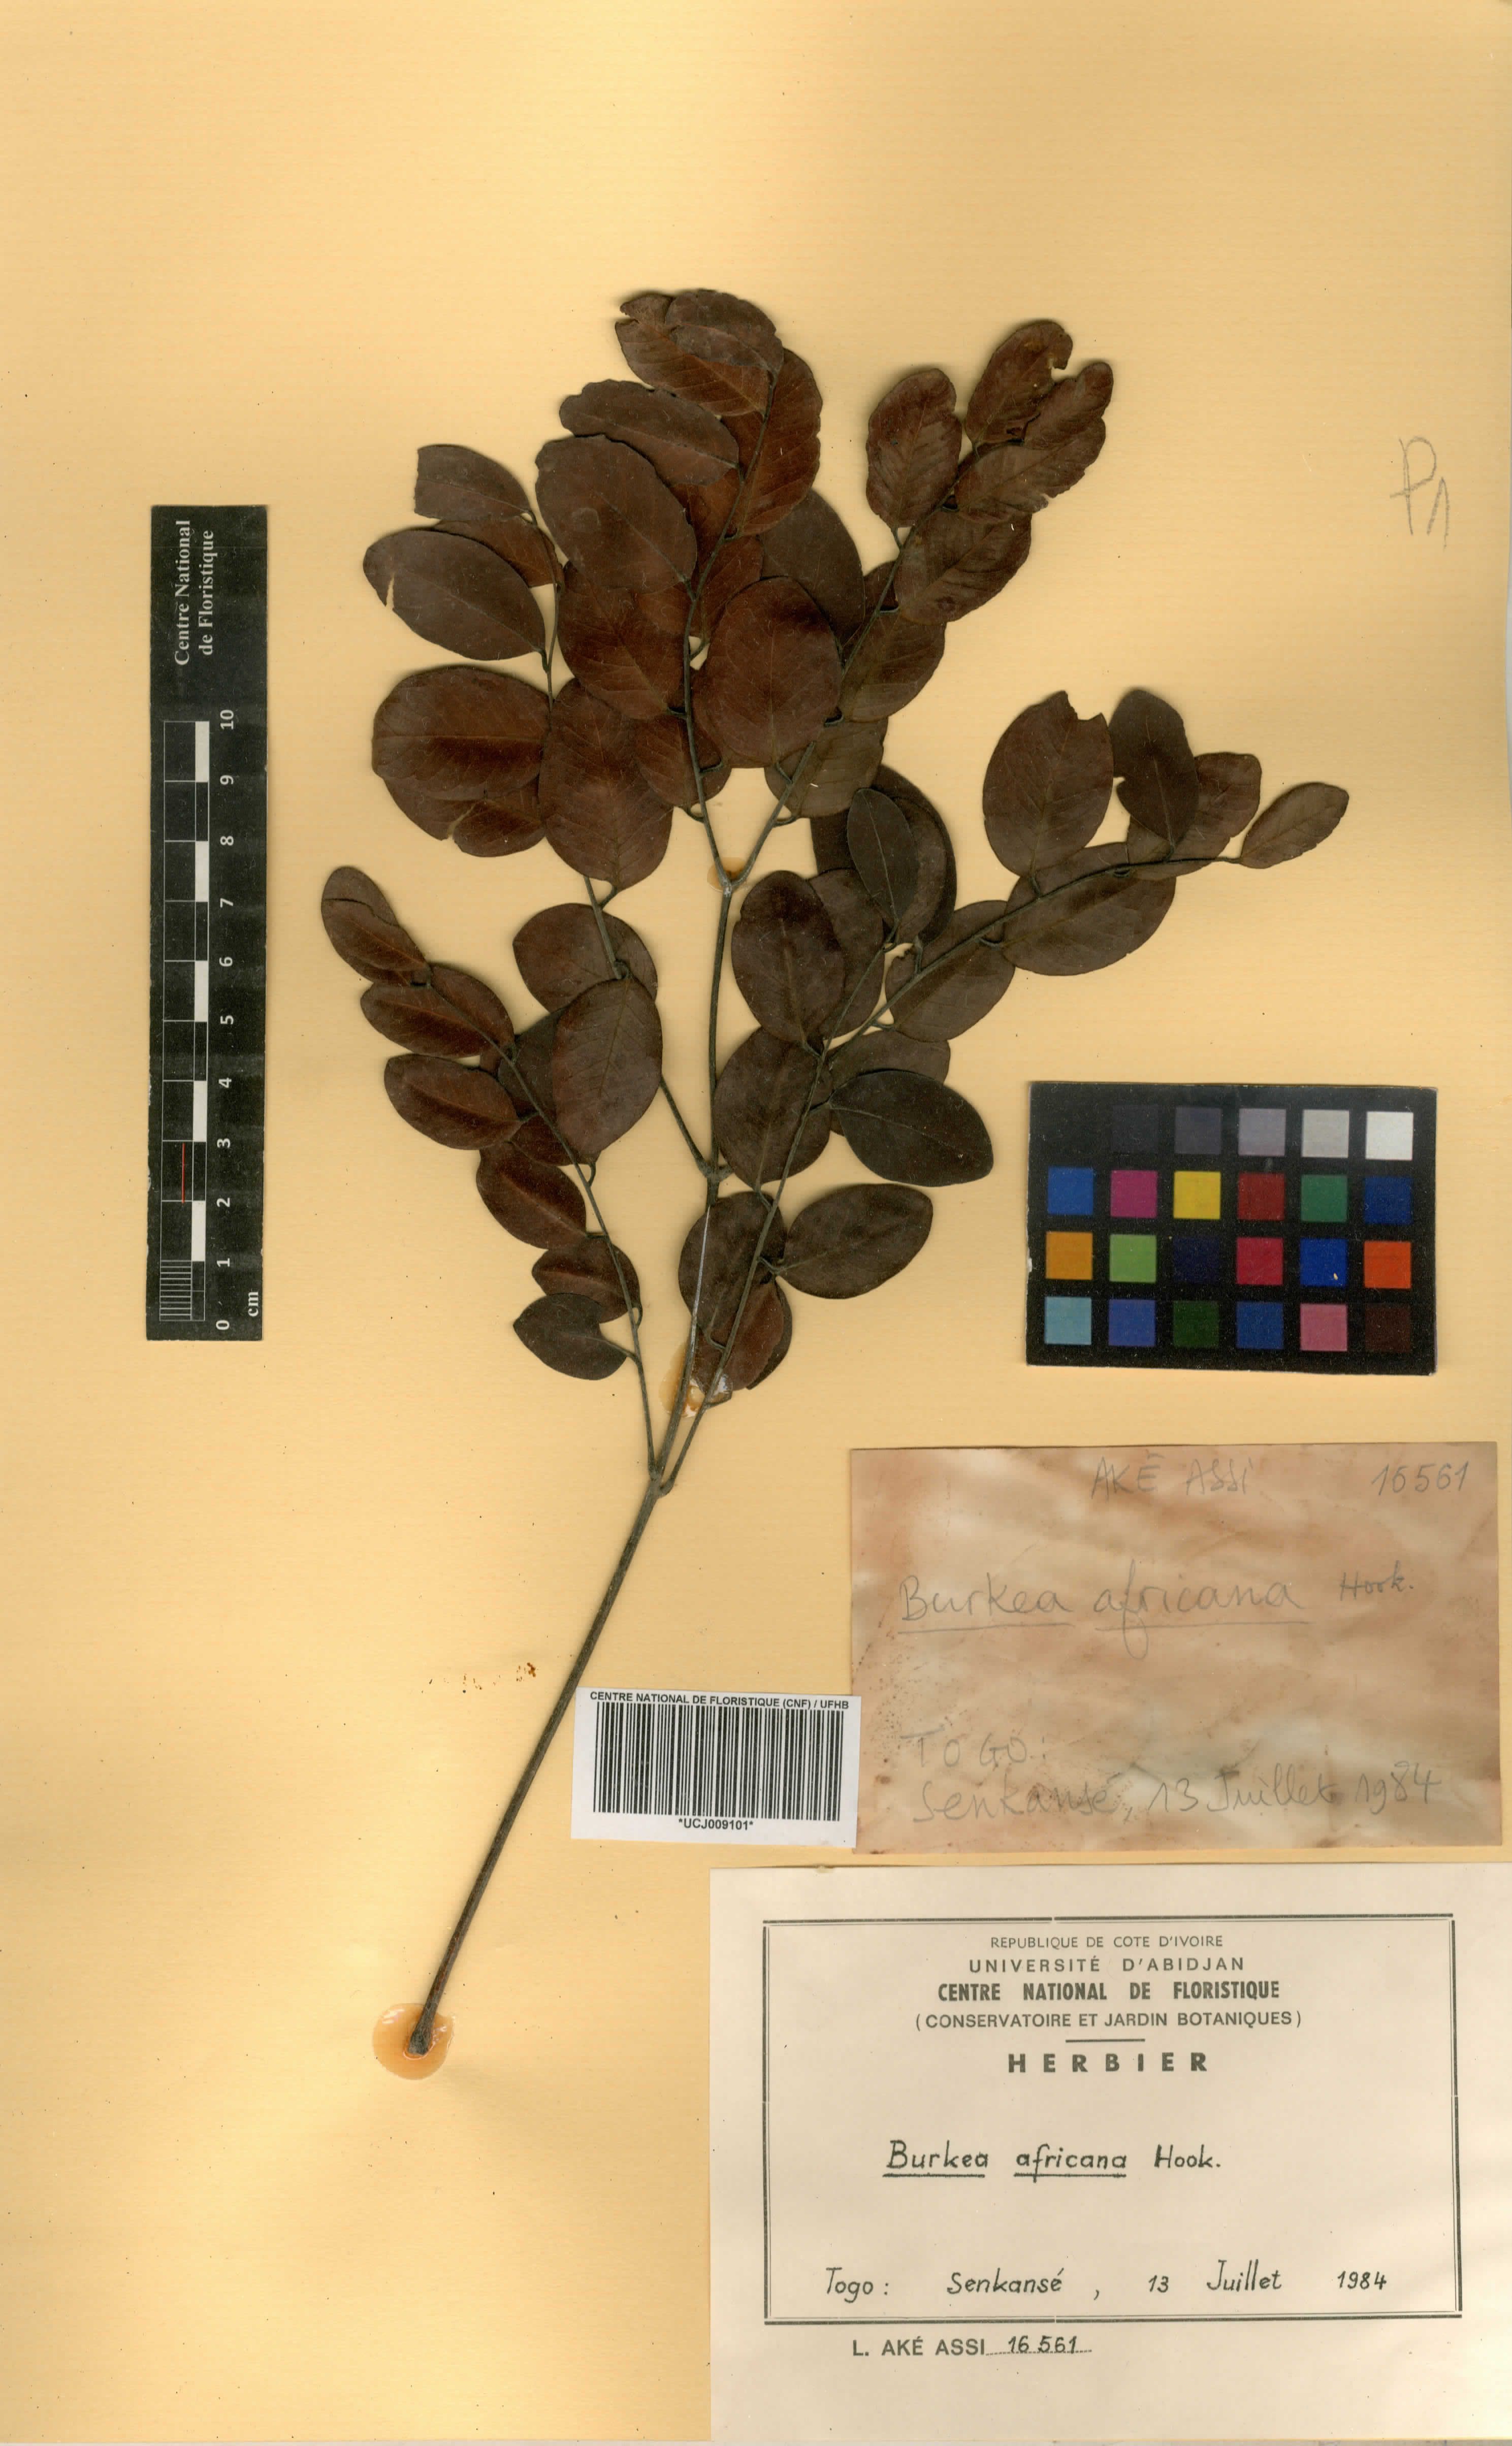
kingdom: Plantae
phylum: Tracheophyta
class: Magnoliopsida
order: Fabales
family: Fabaceae
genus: Burkea
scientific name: Burkea africana
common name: Mkalati tree
